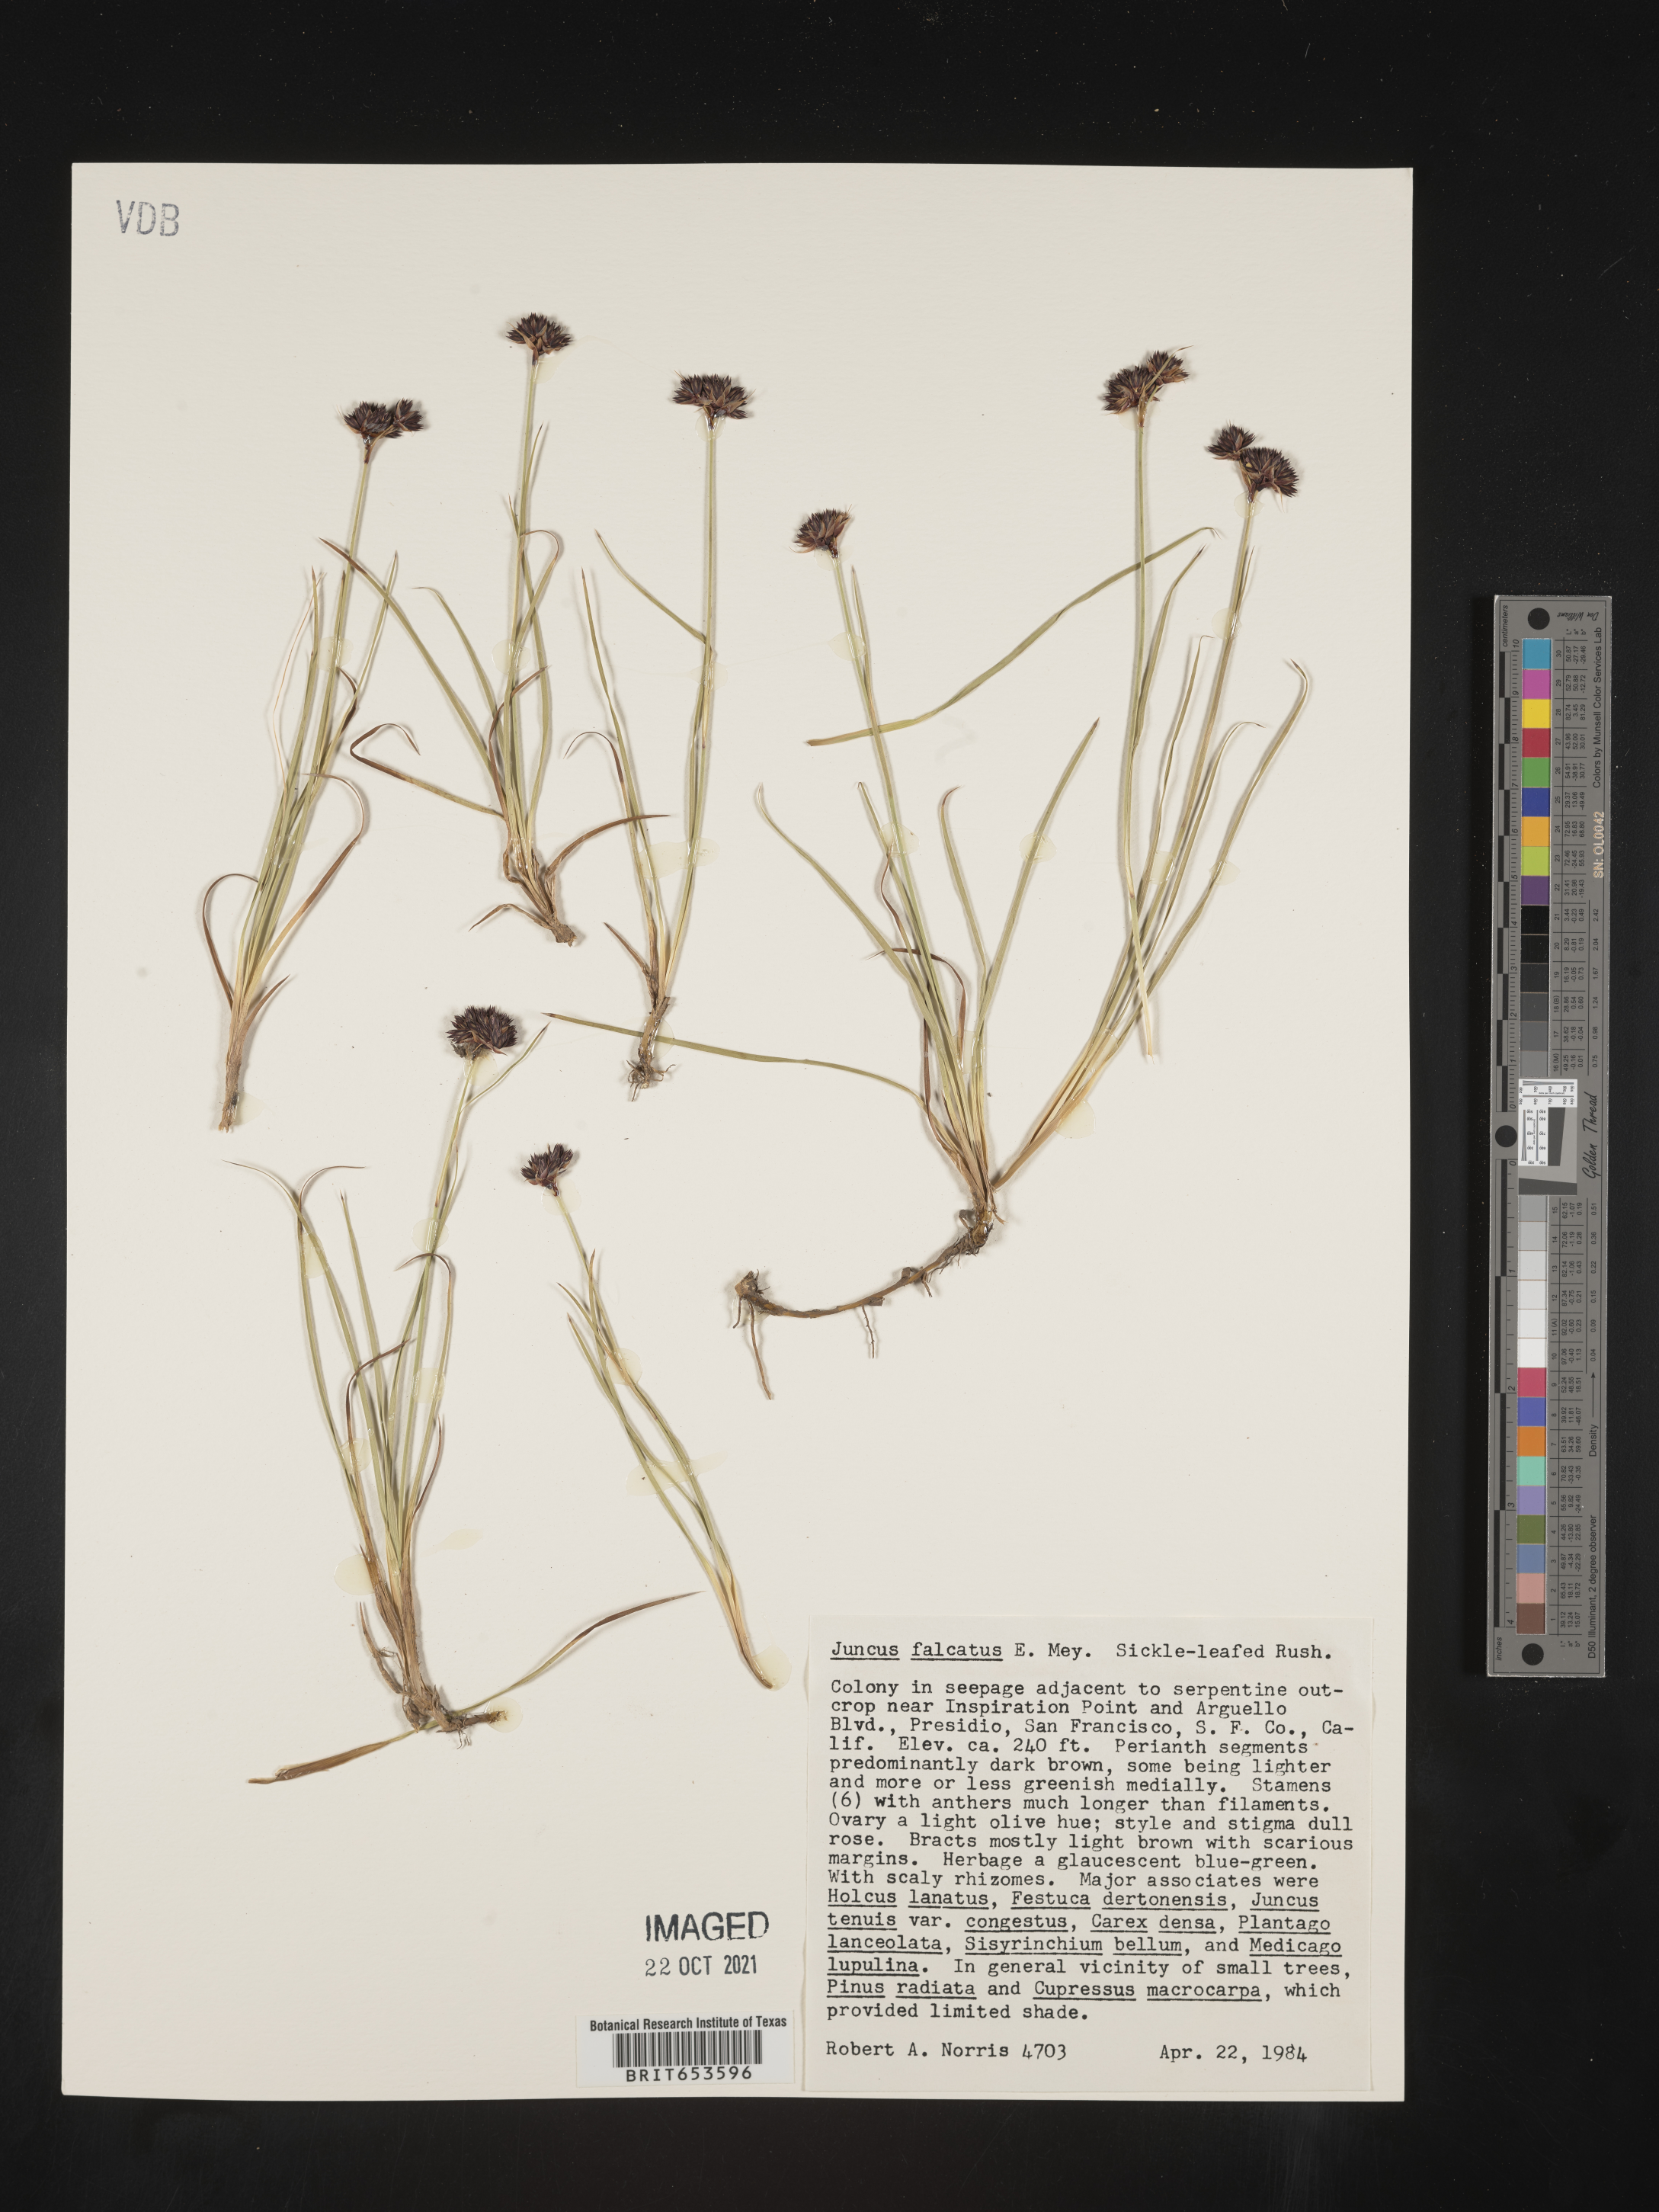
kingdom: Plantae
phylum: Tracheophyta
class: Liliopsida
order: Poales
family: Juncaceae
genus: Juncus
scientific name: Juncus
